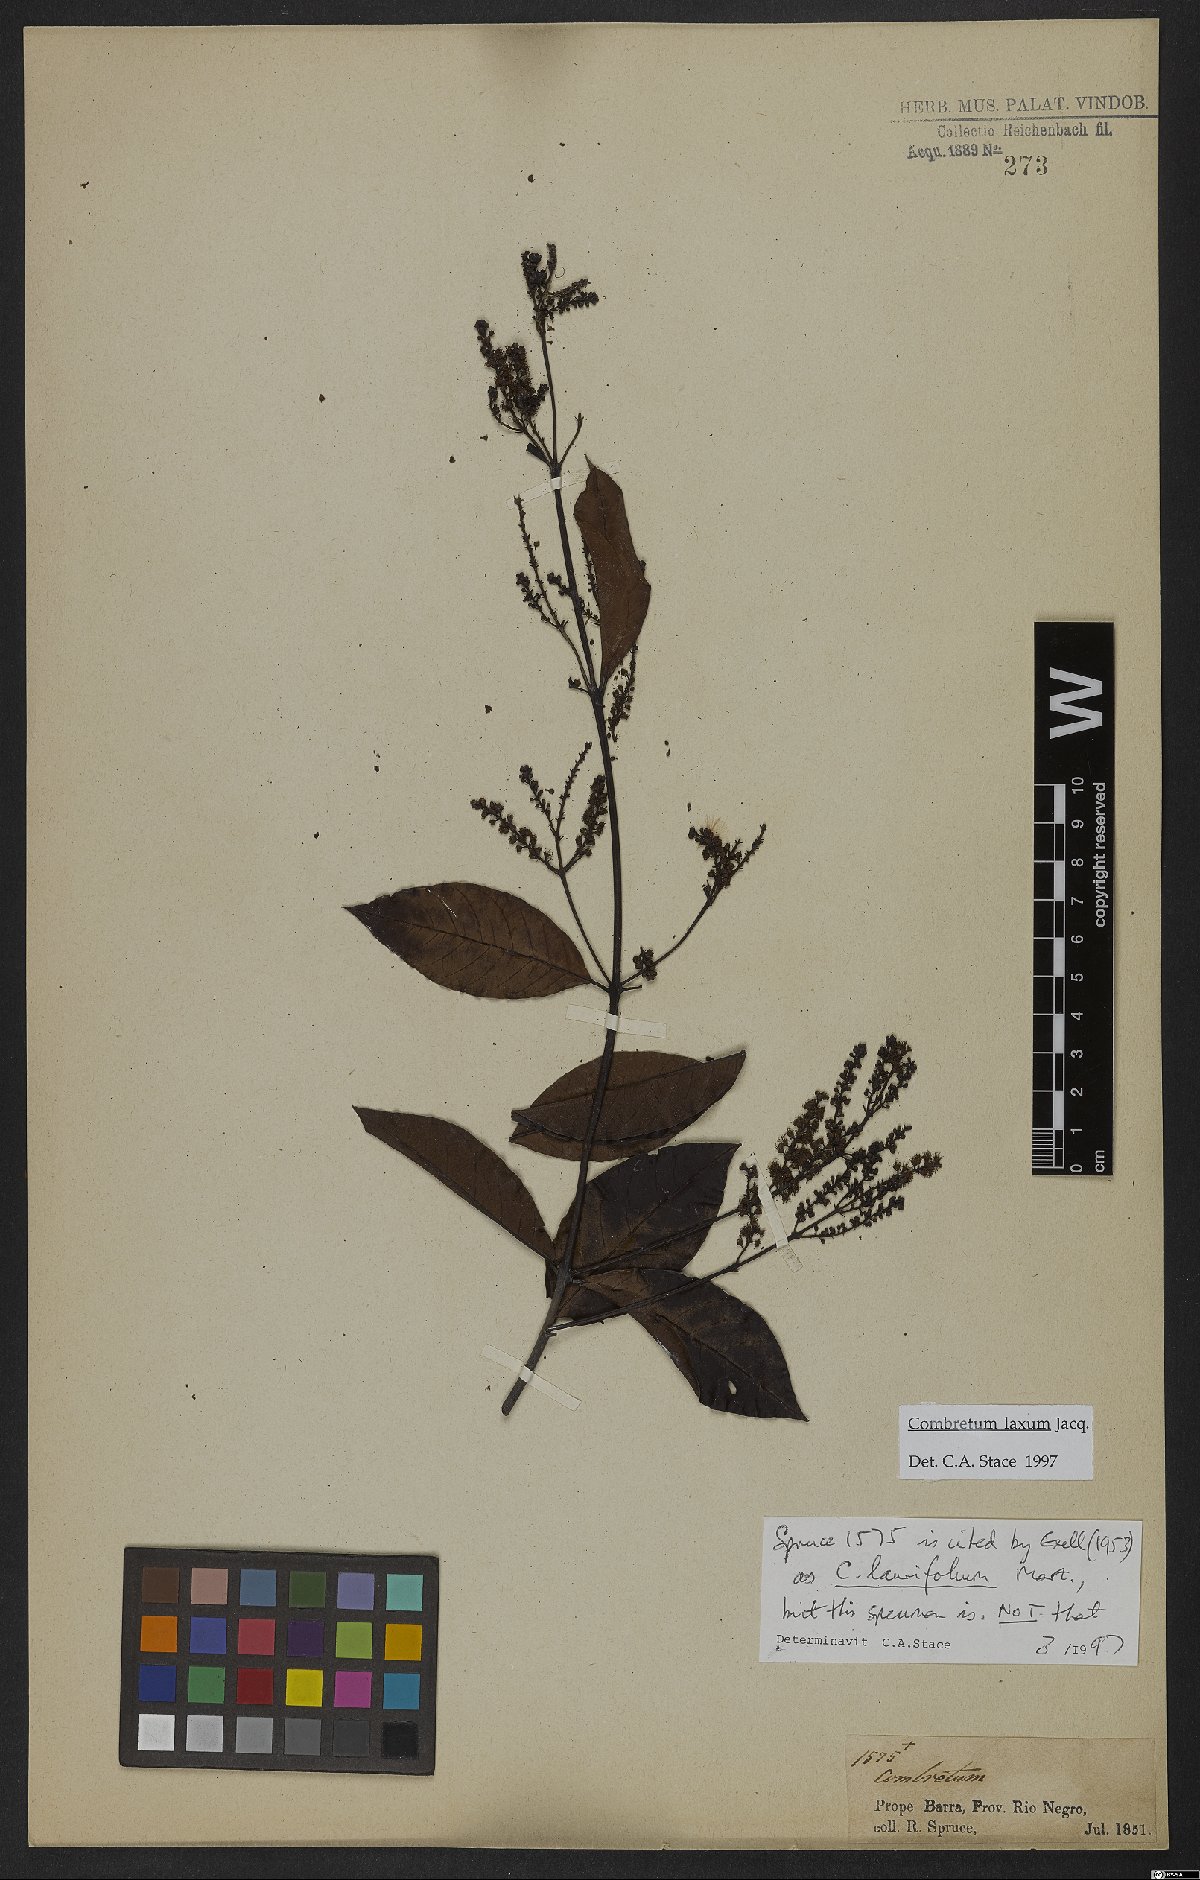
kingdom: Plantae
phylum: Tracheophyta
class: Magnoliopsida
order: Myrtales
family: Combretaceae
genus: Combretum
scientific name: Combretum laxum
